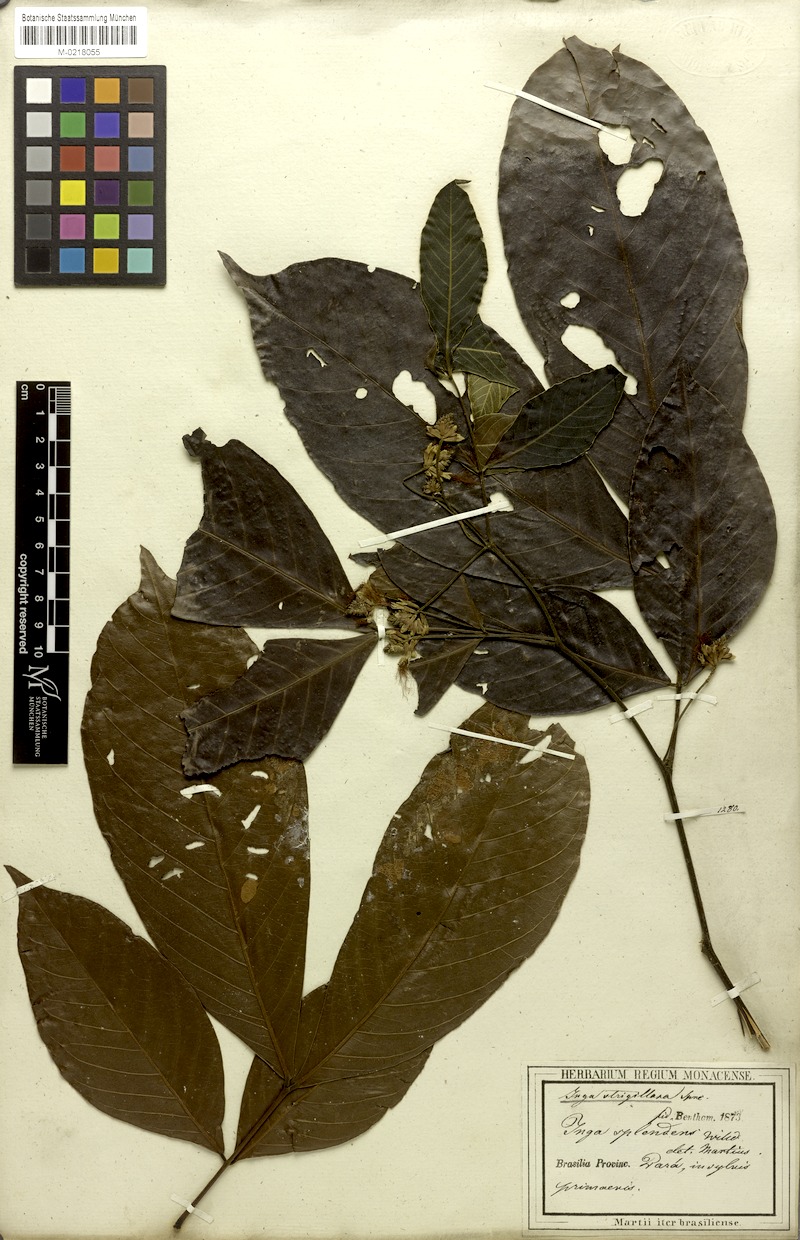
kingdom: Plantae
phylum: Tracheophyta
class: Magnoliopsida
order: Fabales
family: Fabaceae
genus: Inga
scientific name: Inga punctata
